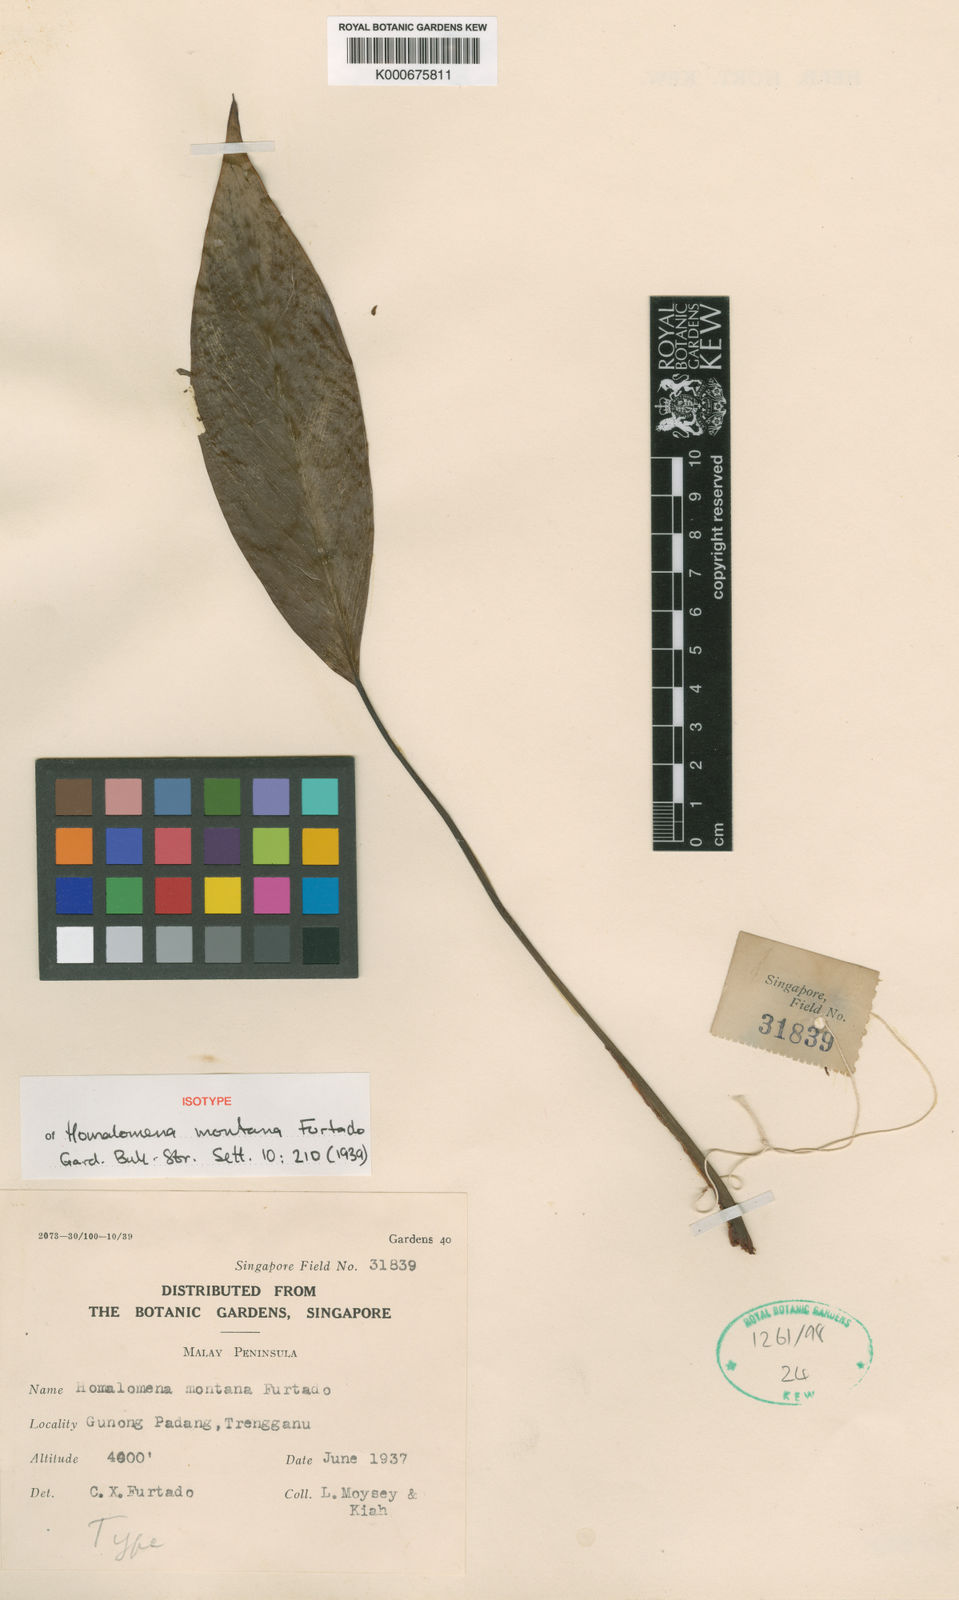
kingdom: Plantae
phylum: Tracheophyta
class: Liliopsida
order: Alismatales
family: Araceae
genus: Homalomena
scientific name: Homalomena montana
